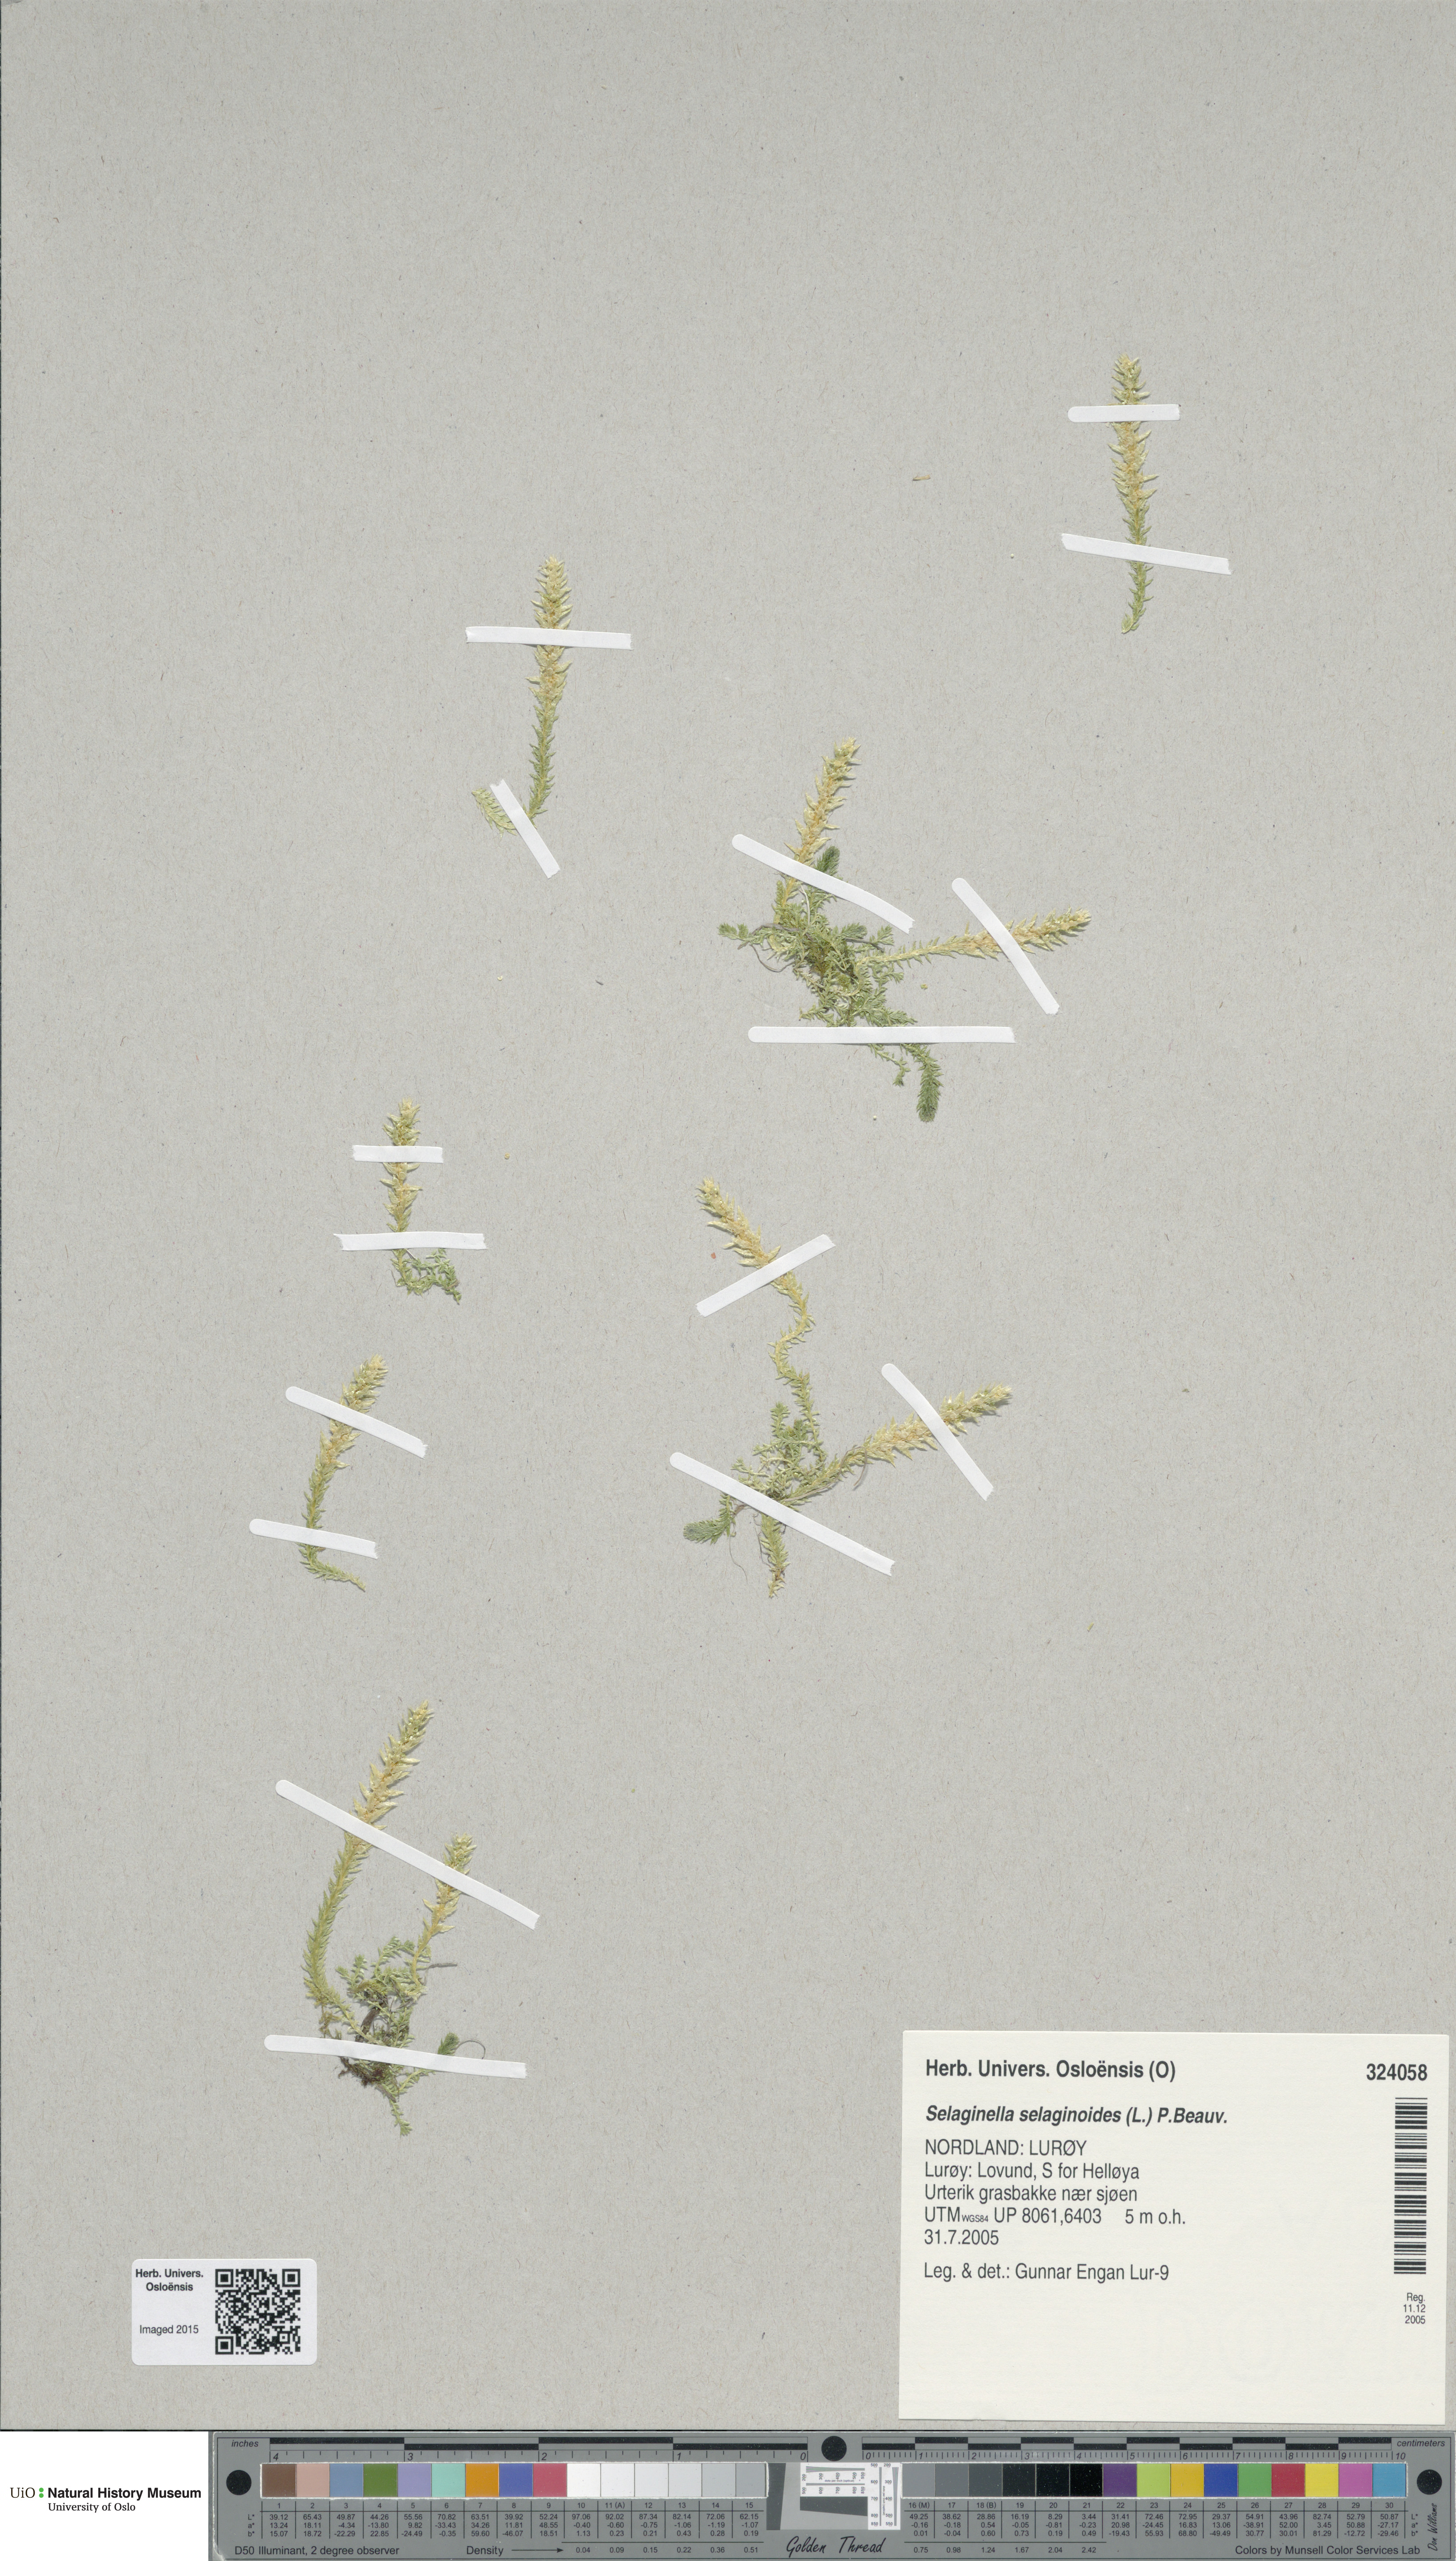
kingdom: Plantae
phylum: Tracheophyta
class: Lycopodiopsida
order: Selaginellales
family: Selaginellaceae
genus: Selaginella
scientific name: Selaginella selaginoides
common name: Prickly mountain-moss
